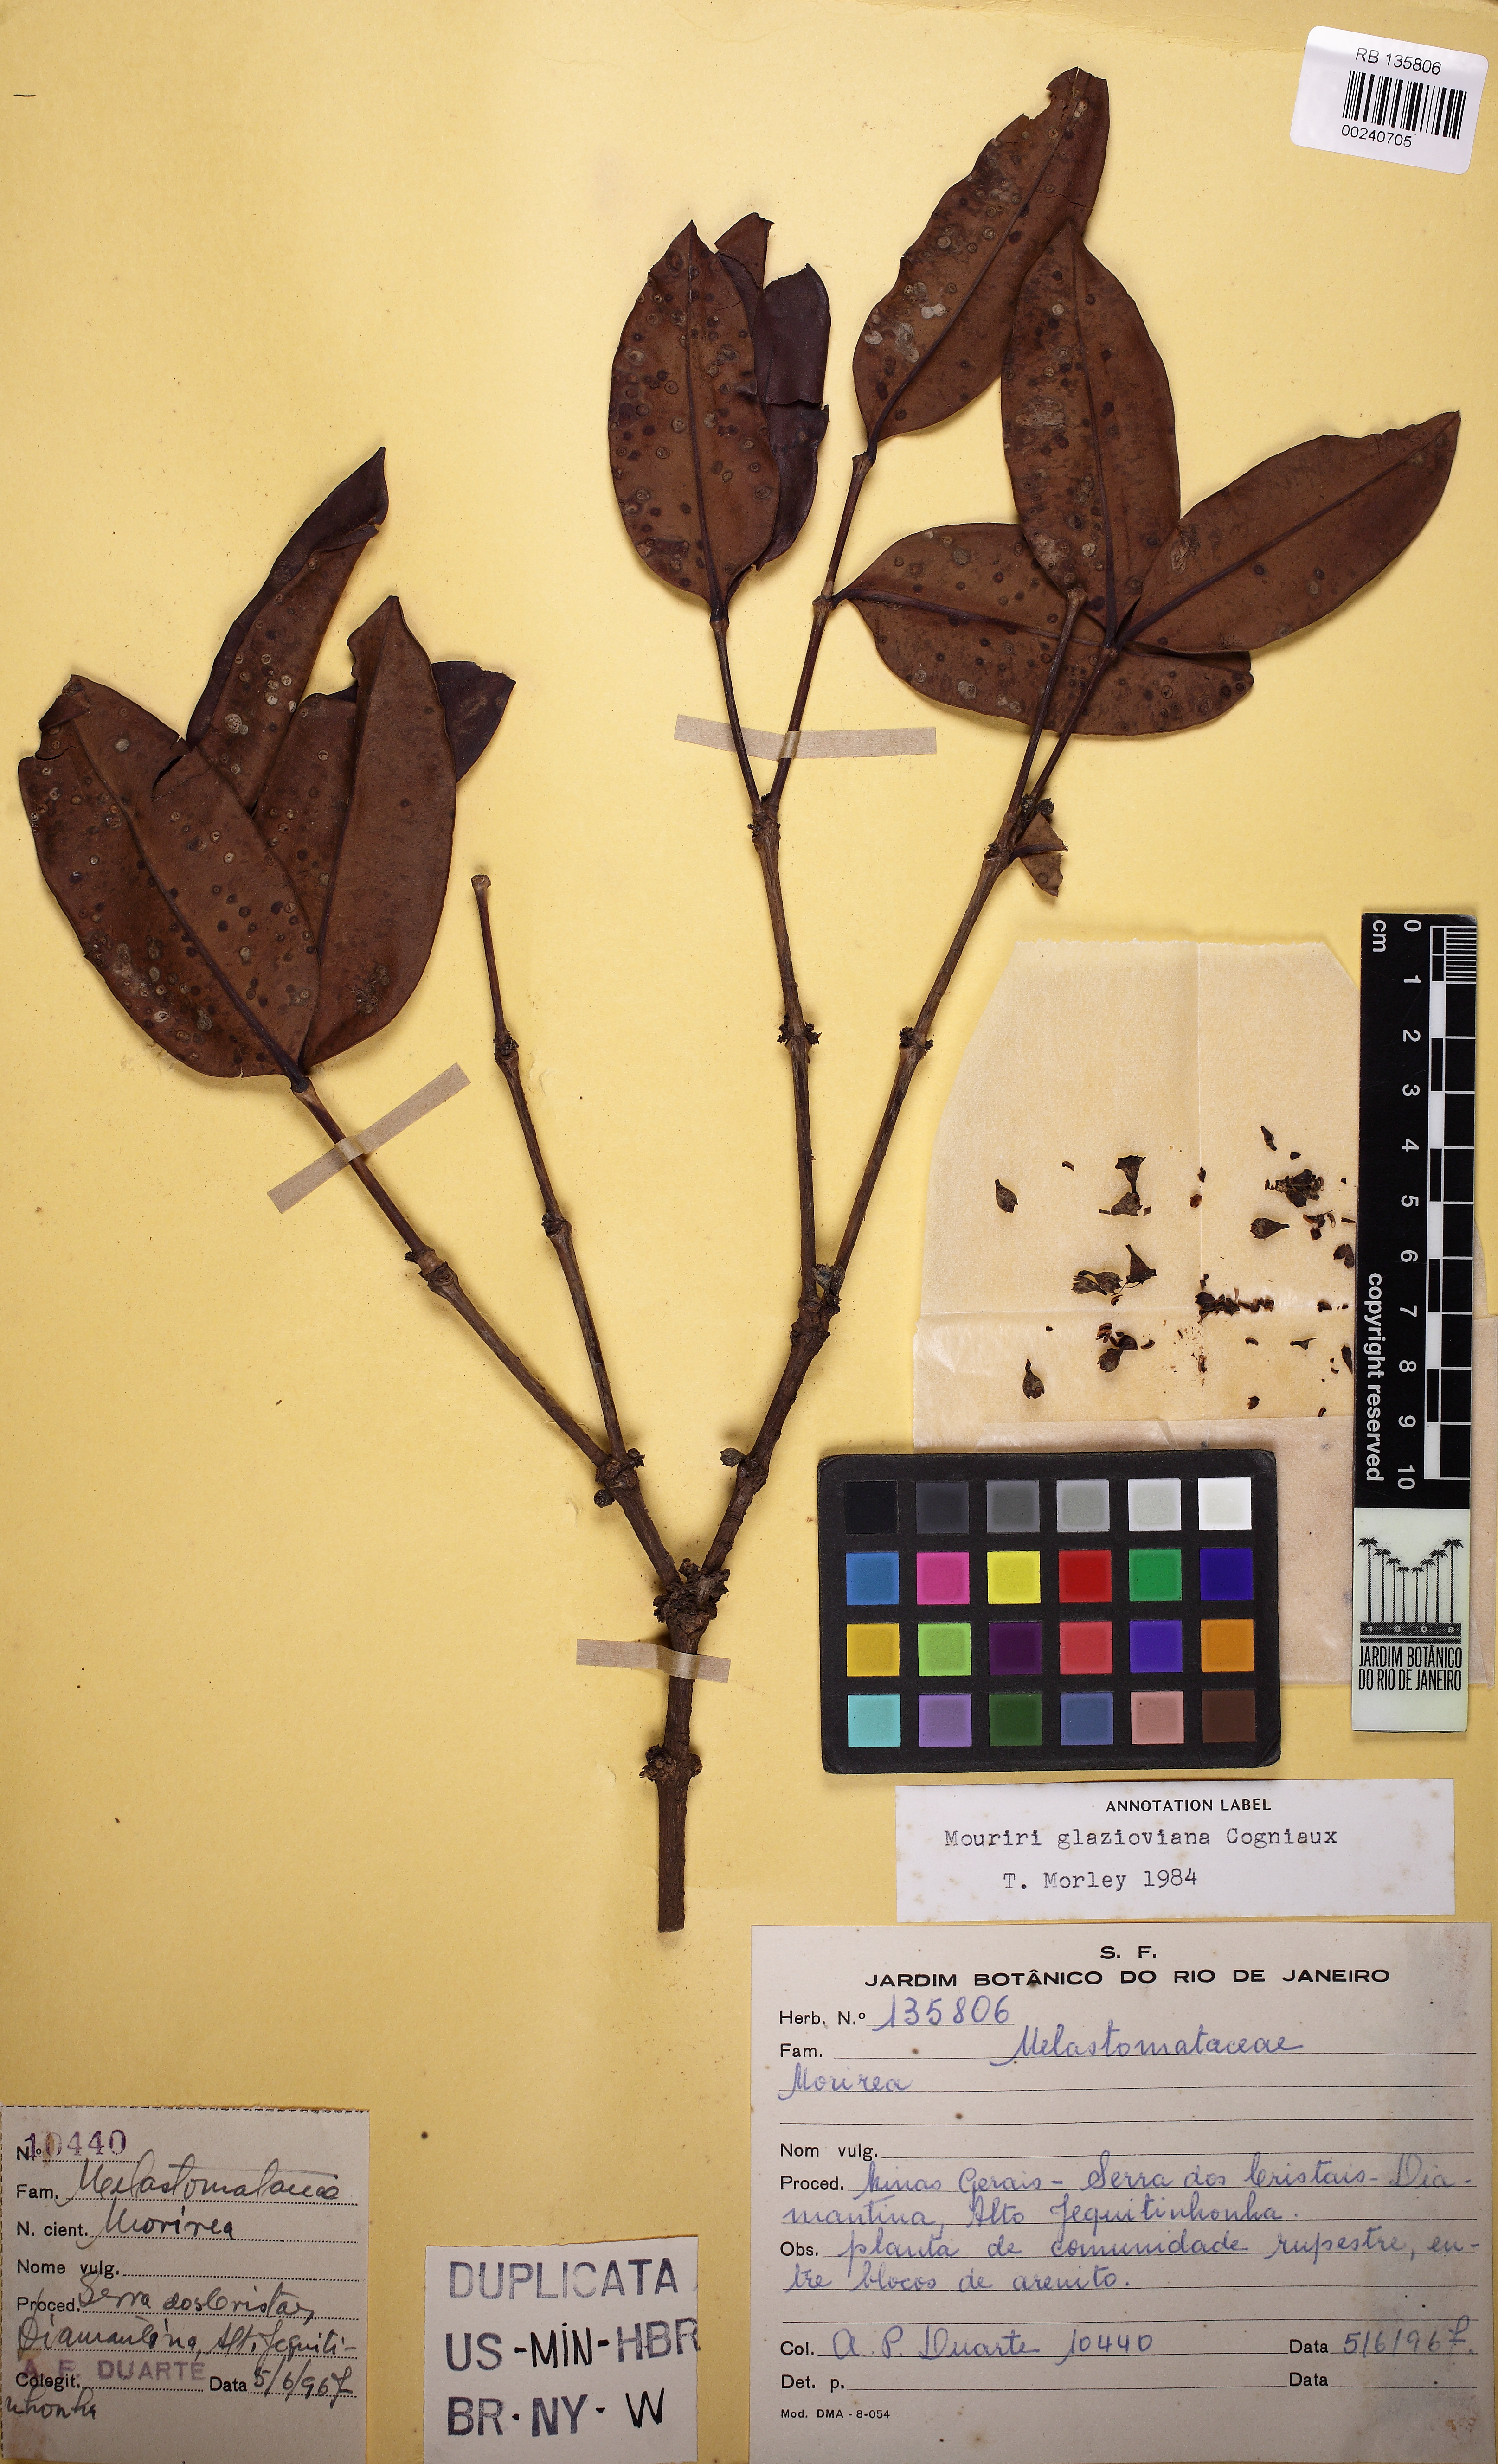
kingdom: Plantae
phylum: Tracheophyta
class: Magnoliopsida
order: Myrtales
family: Melastomataceae
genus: Mouriri
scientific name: Mouriri glazioviana
